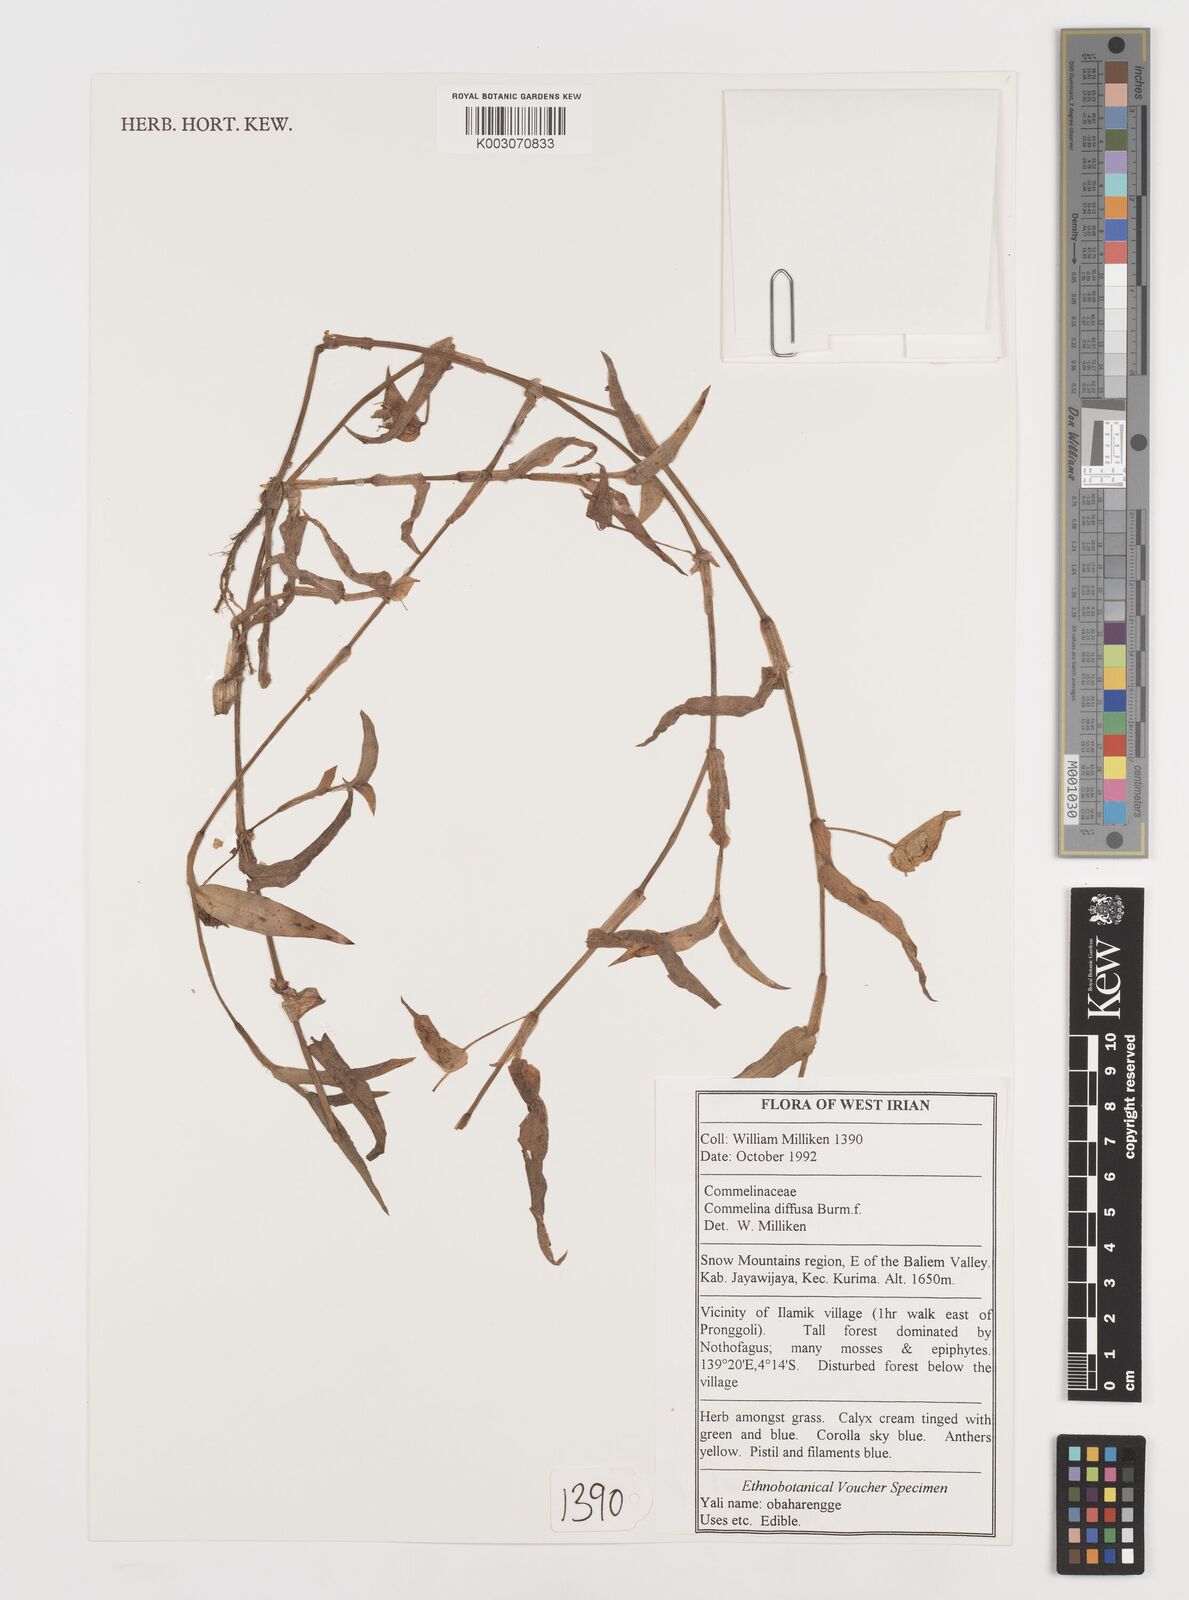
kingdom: Plantae
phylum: Tracheophyta
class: Liliopsida
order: Commelinales
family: Commelinaceae
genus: Commelina
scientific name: Commelina diffusa
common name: Climbing dayflower
